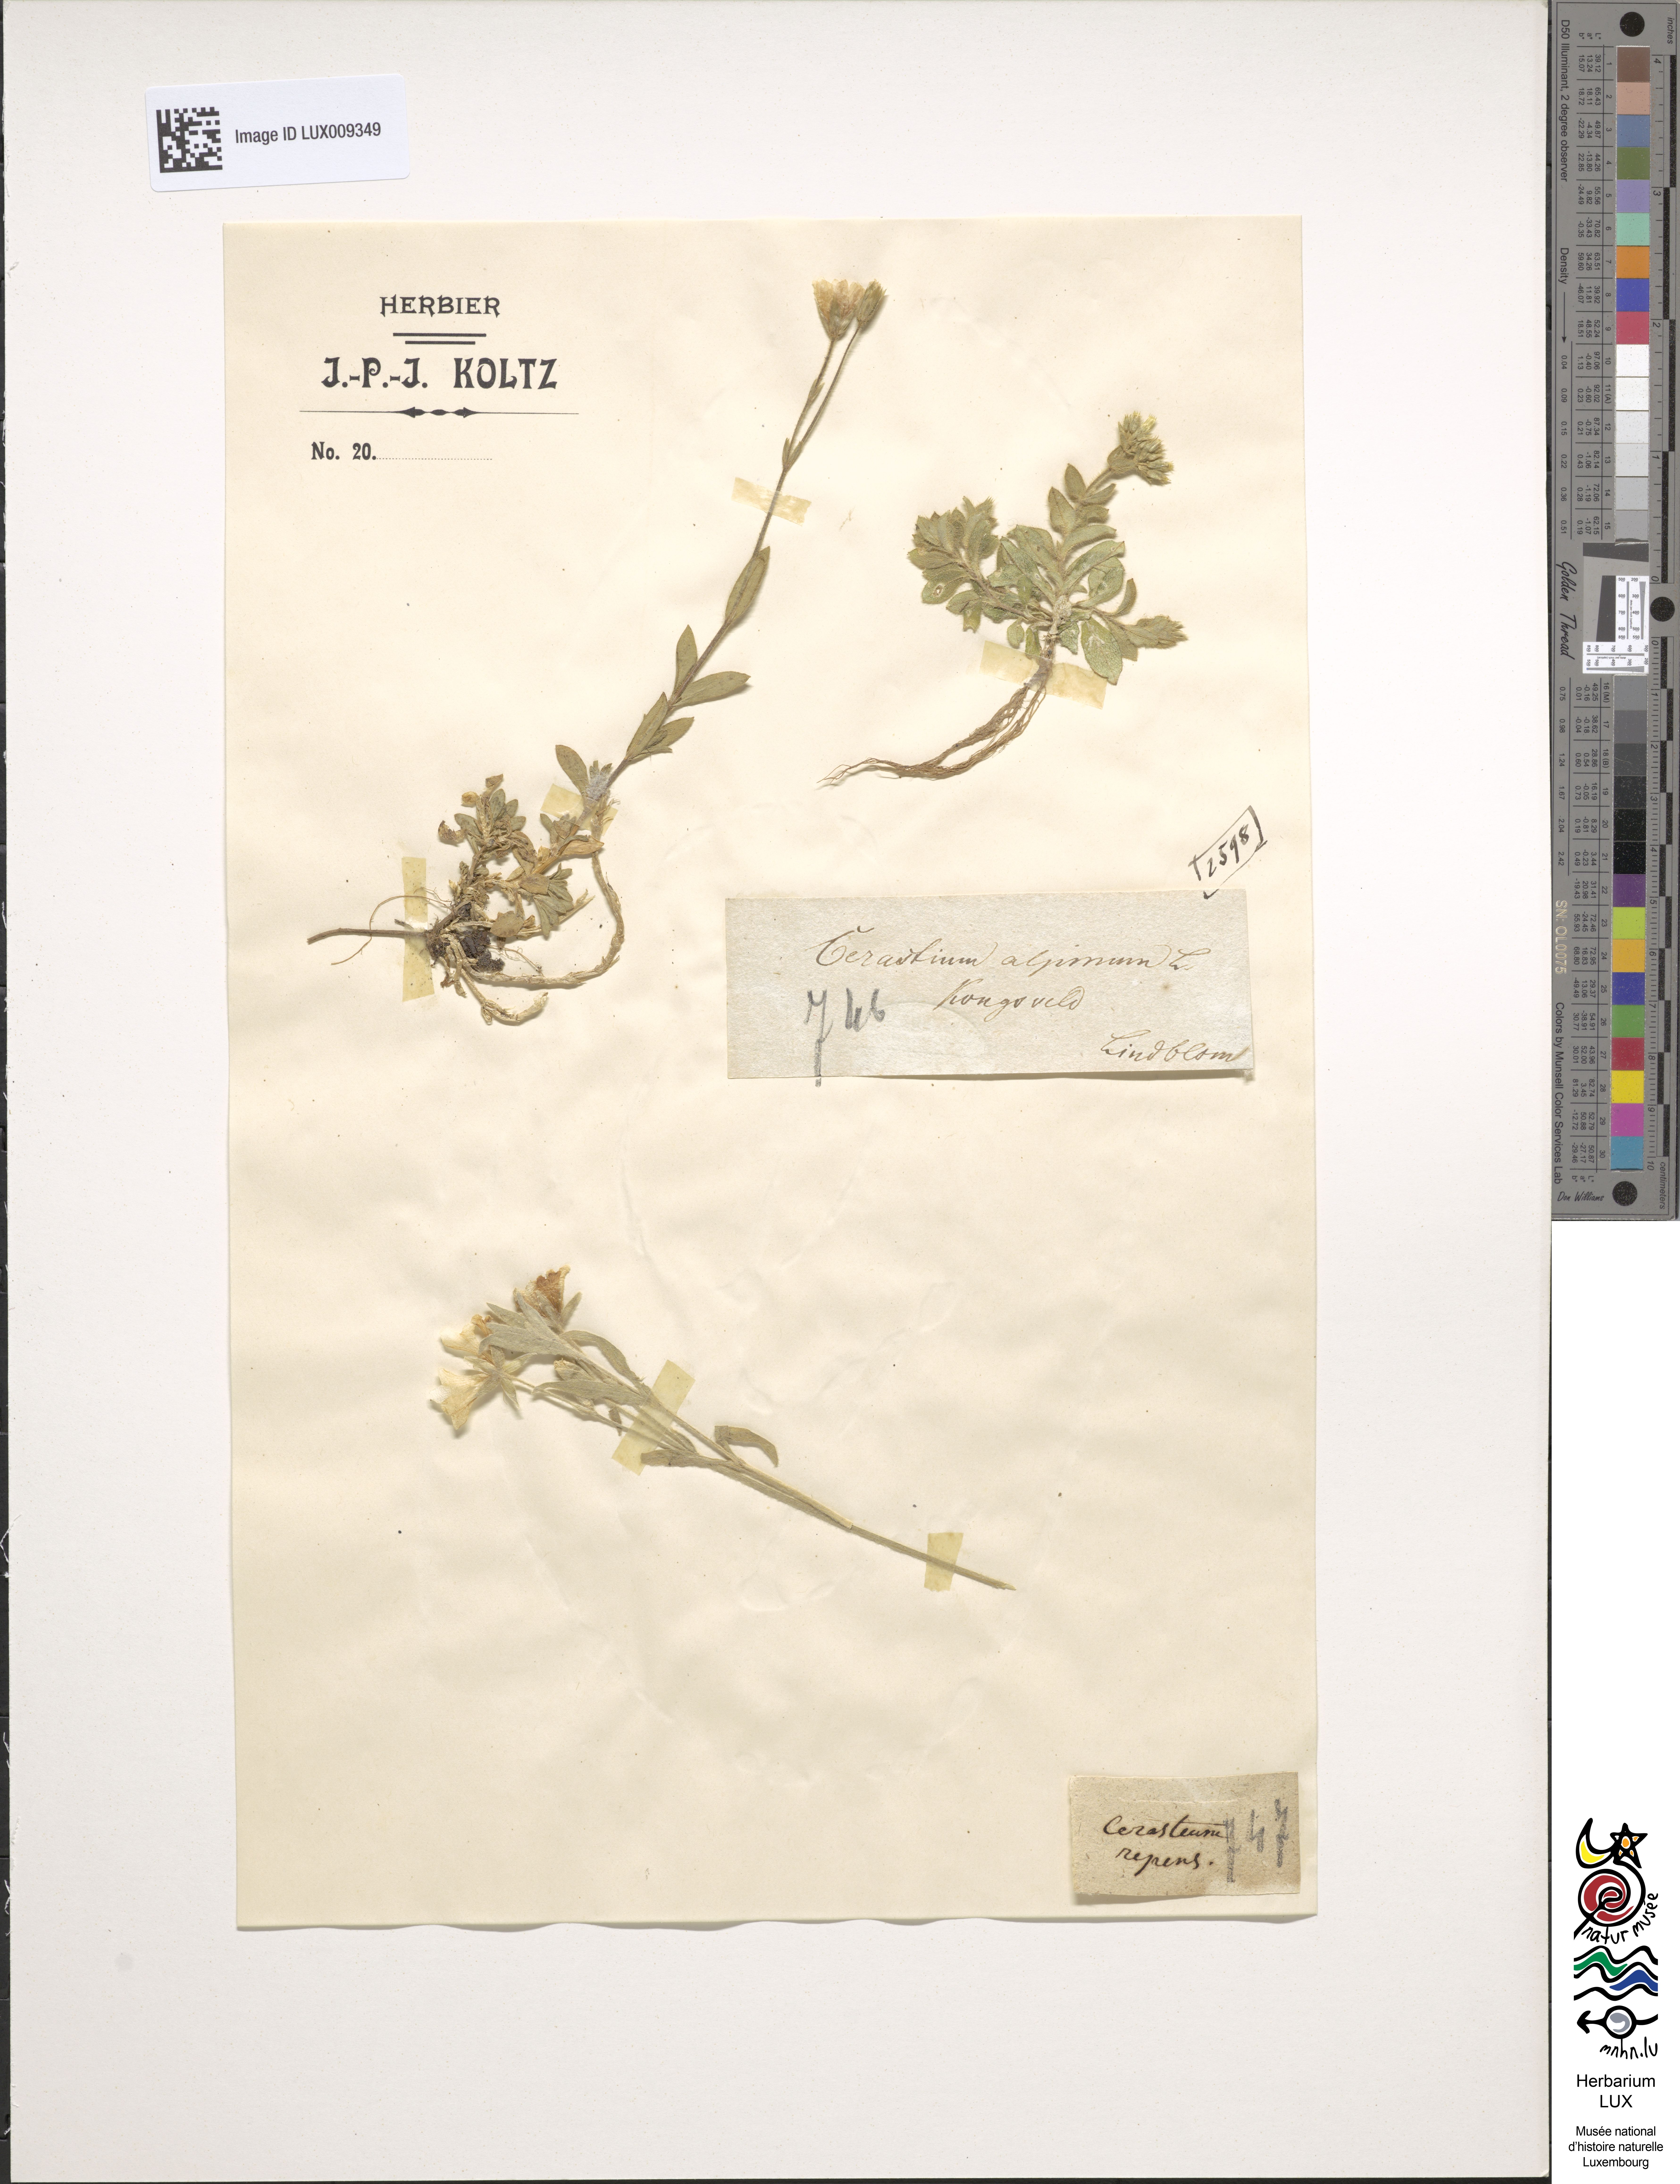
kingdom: Plantae
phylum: Tracheophyta
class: Magnoliopsida
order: Caryophyllales
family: Caryophyllaceae
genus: Cerastium
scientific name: Cerastium alpinum
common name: Alpine mouse-ear
